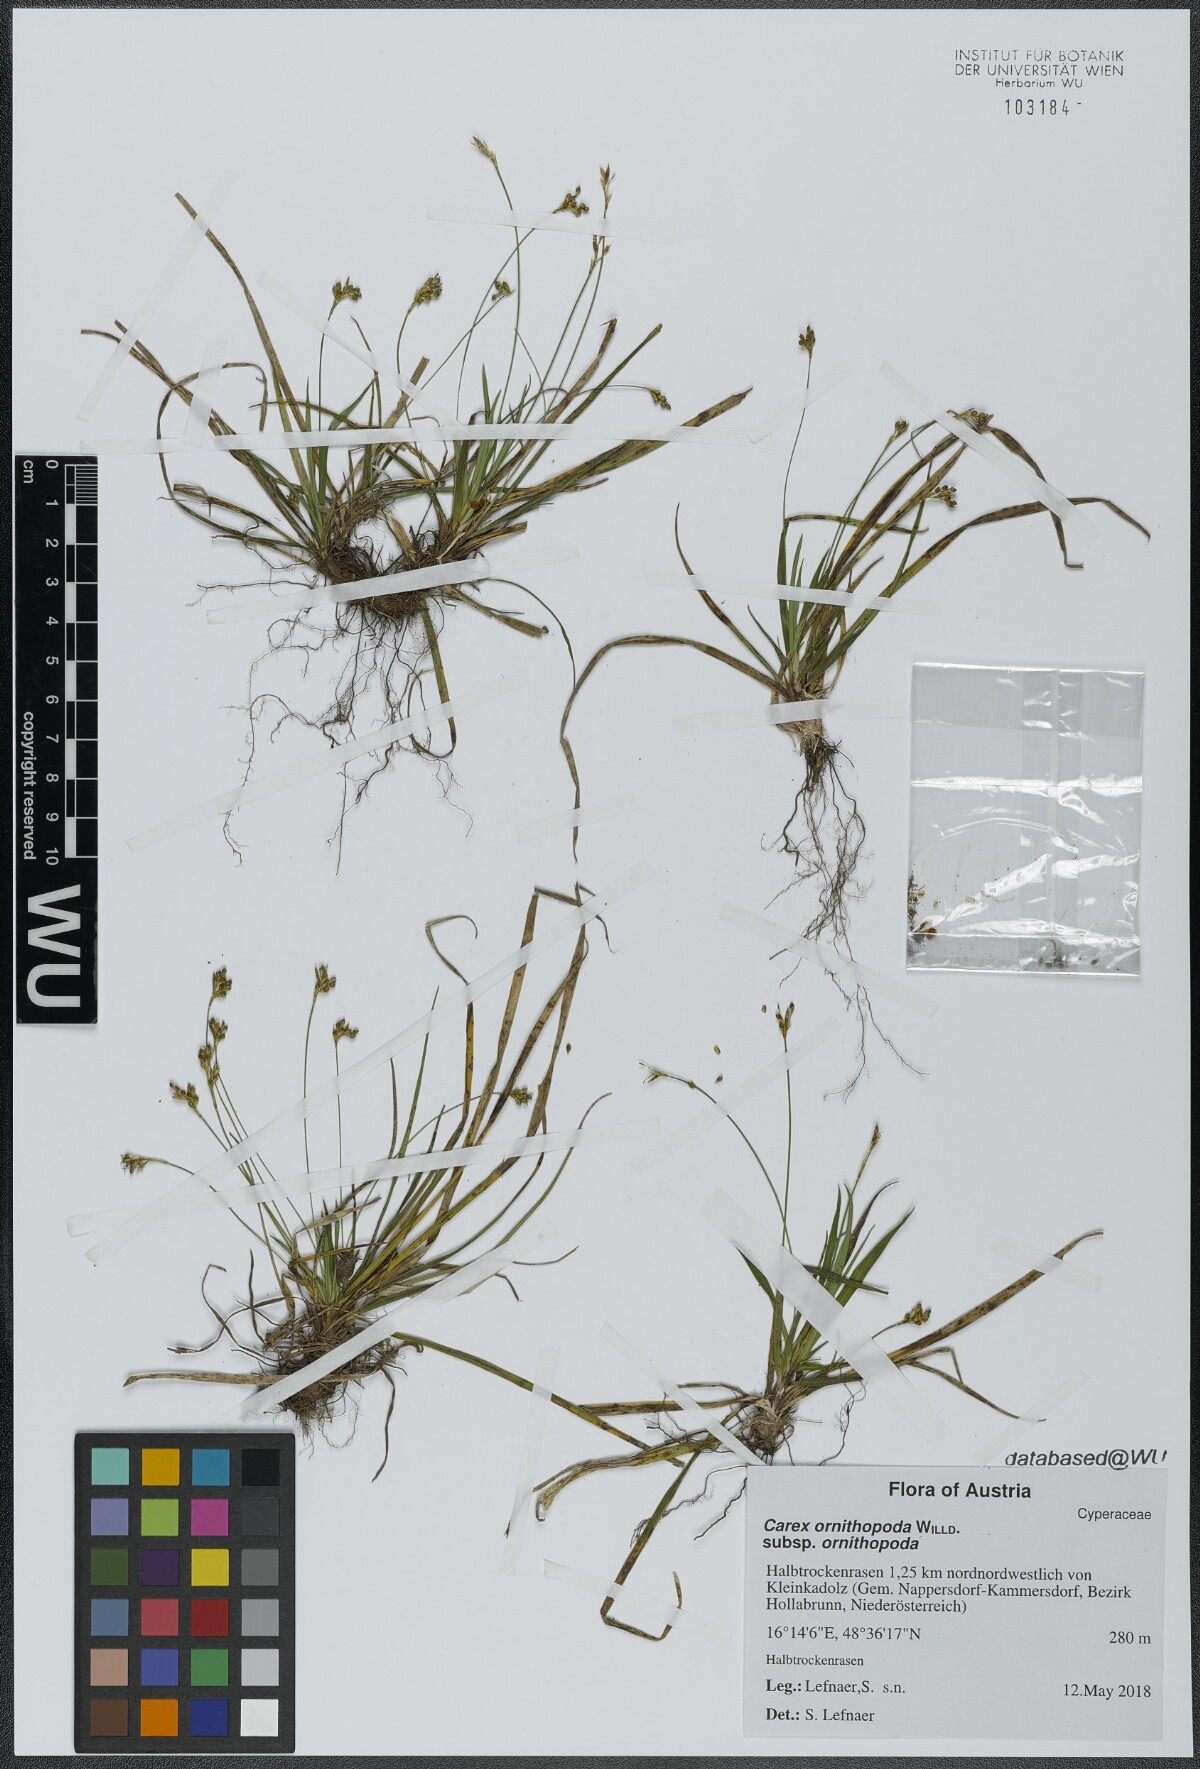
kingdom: Plantae
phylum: Tracheophyta
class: Liliopsida
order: Poales
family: Cyperaceae
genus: Carex
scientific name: Carex ornithopoda
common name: Bird's-foot sedge
